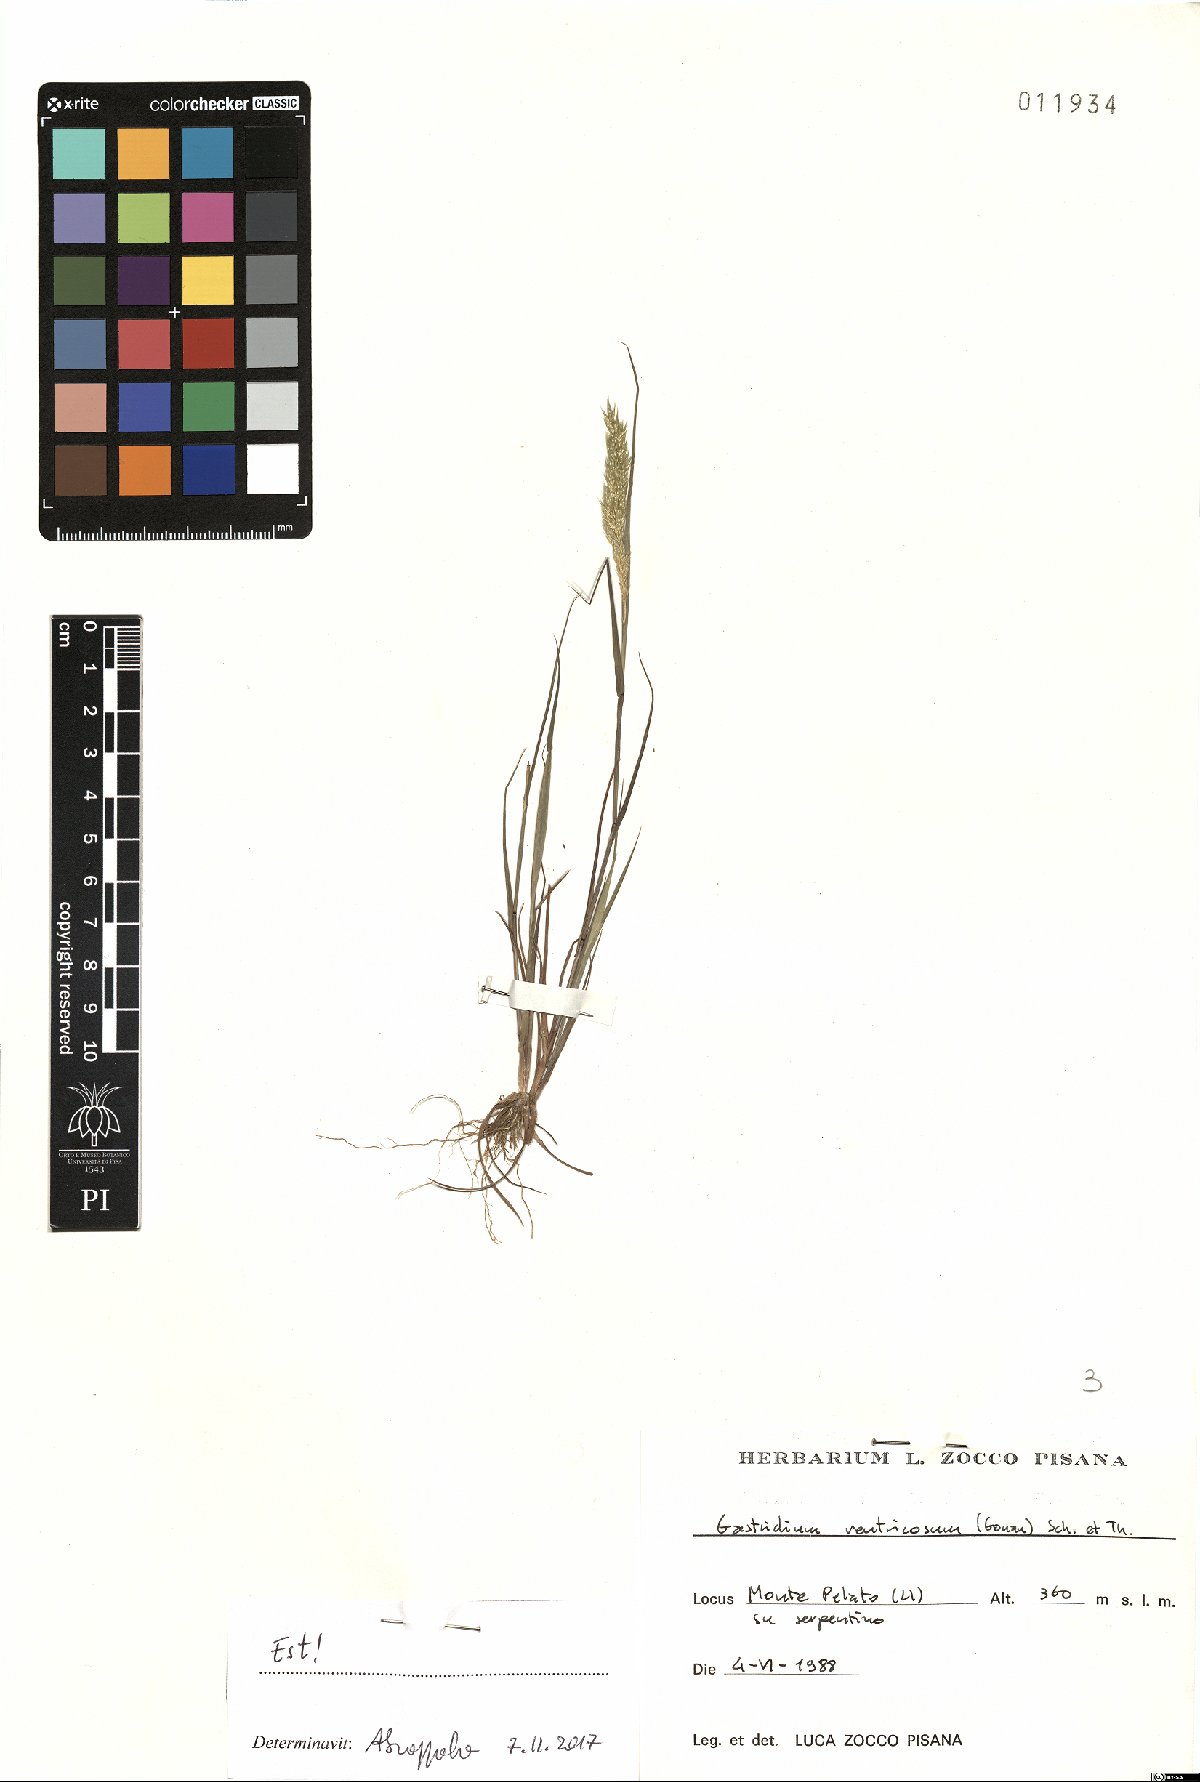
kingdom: Plantae
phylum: Tracheophyta
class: Liliopsida
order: Poales
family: Poaceae
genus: Gastridium
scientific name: Gastridium ventricosum
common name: Nit-grass
